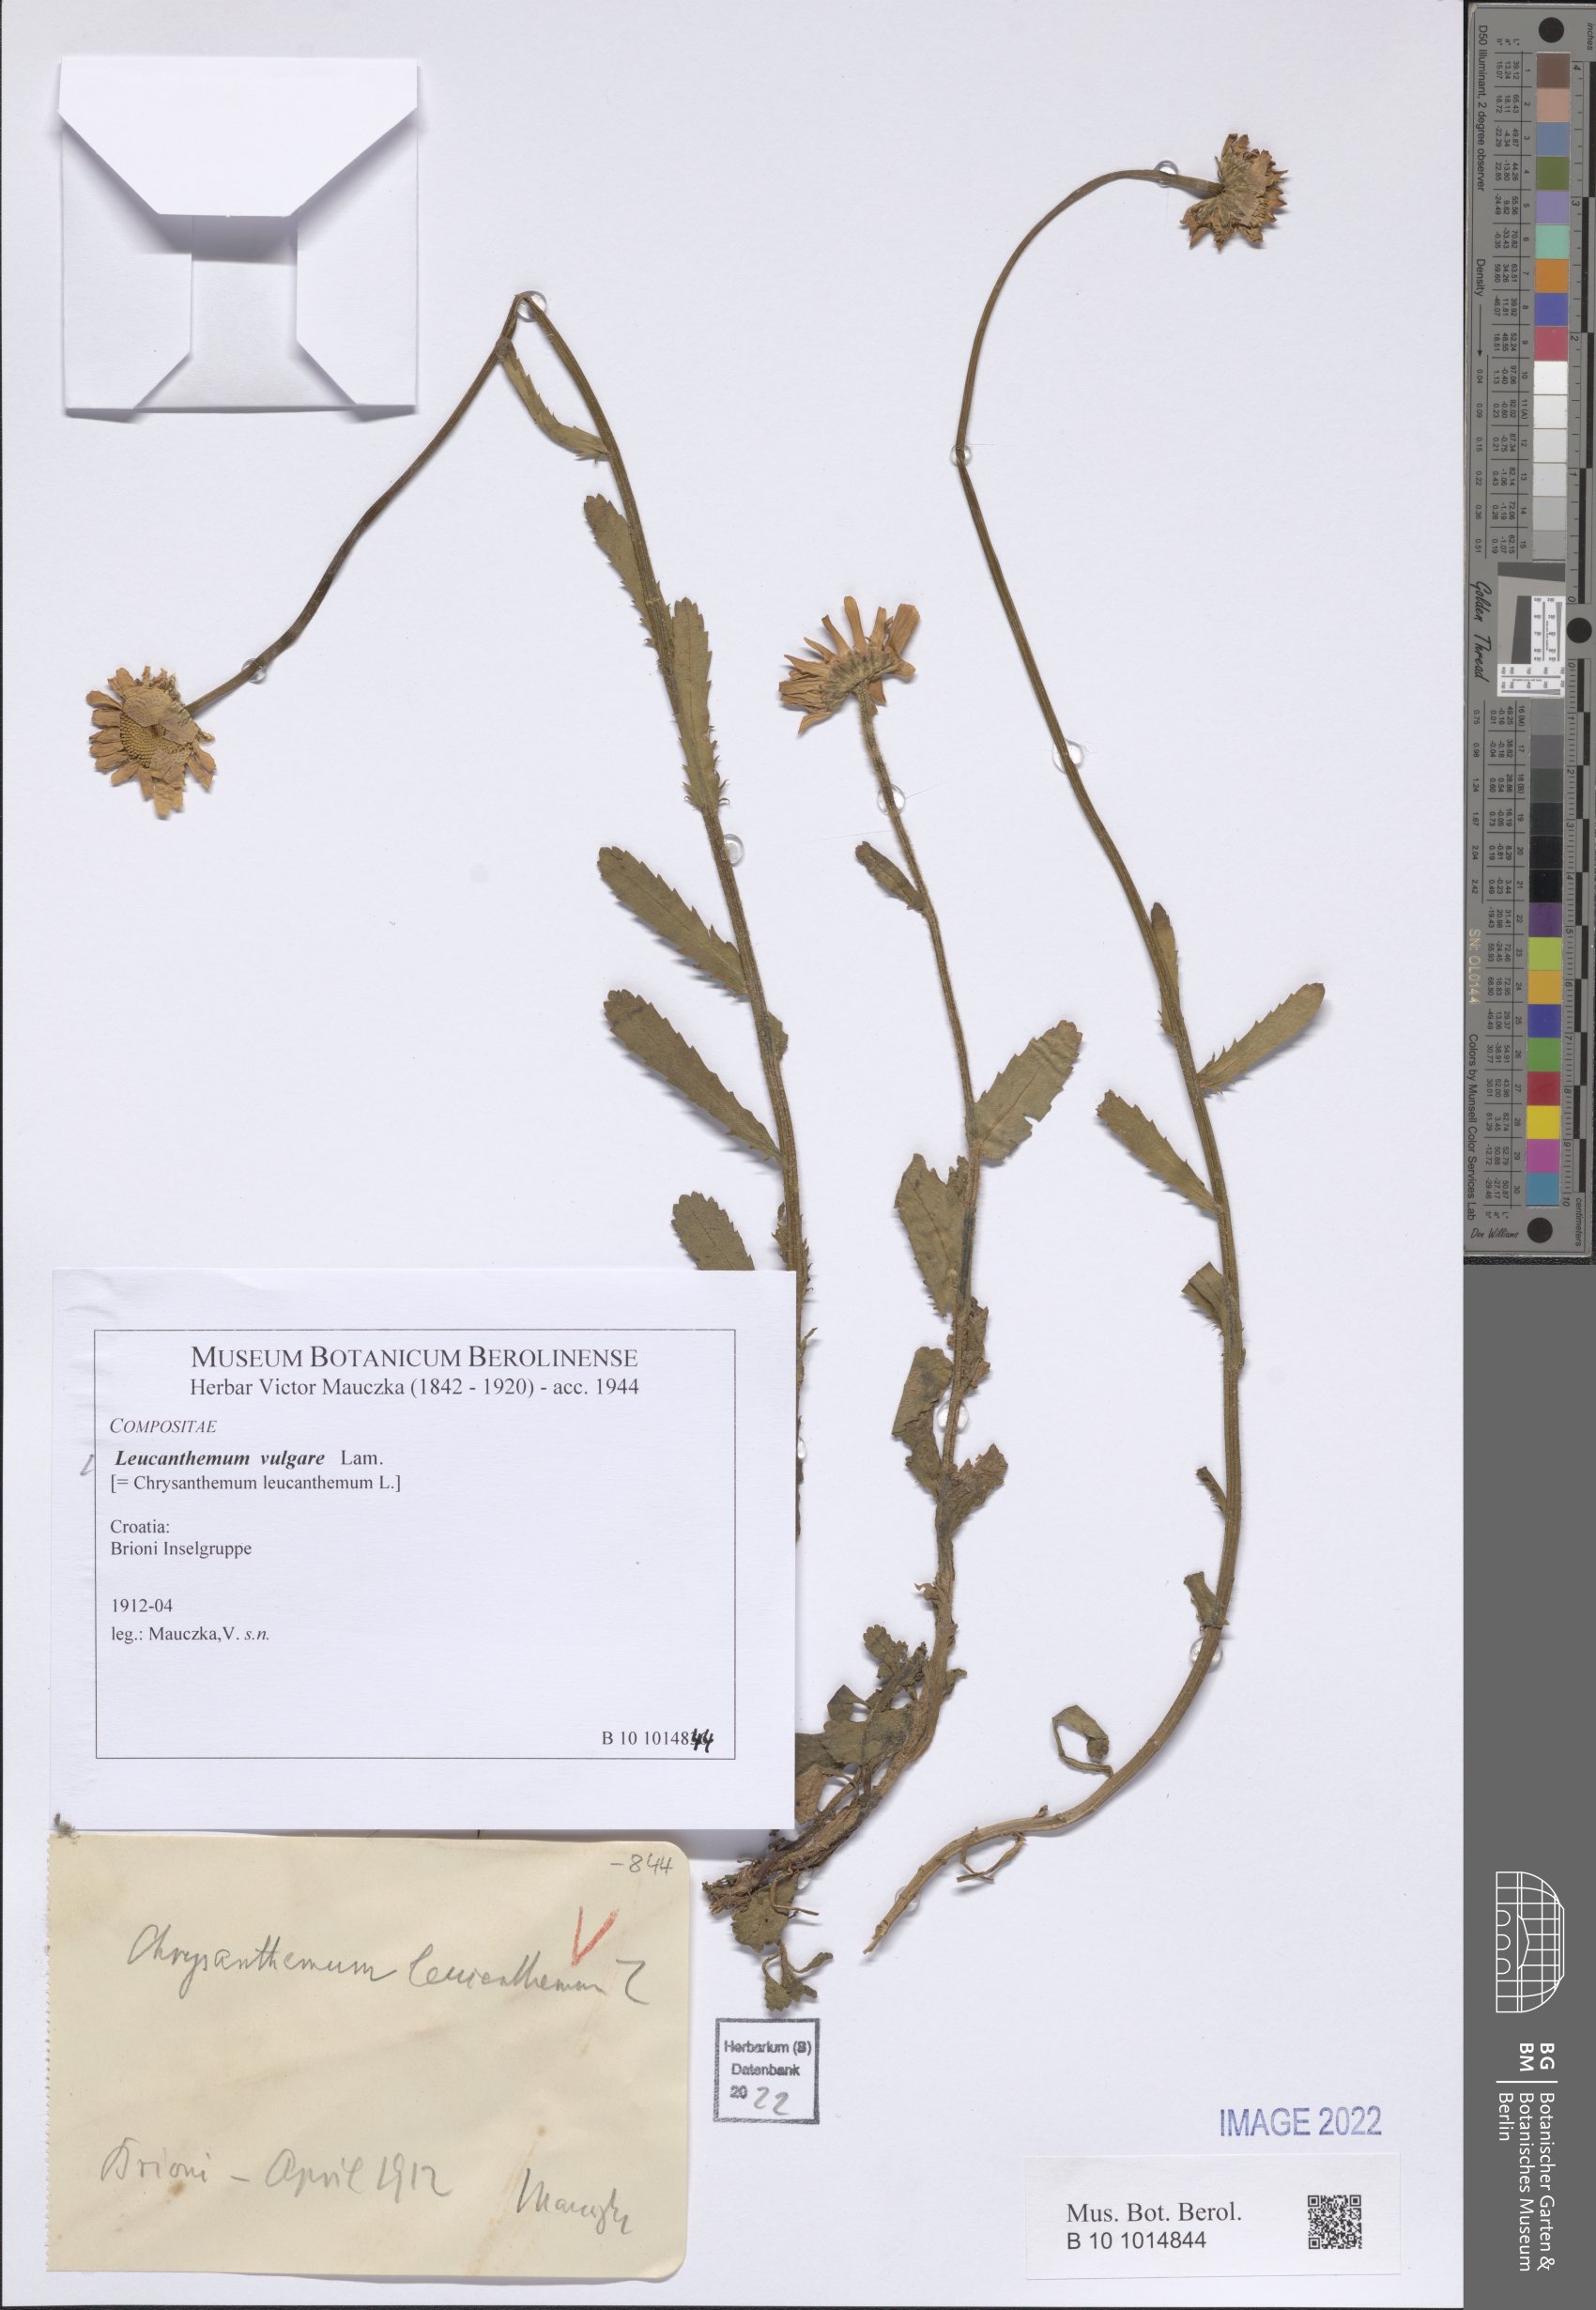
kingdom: Plantae
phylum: Tracheophyta
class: Magnoliopsida
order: Asterales
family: Asteraceae
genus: Leucanthemum
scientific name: Leucanthemum ircutianum
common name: Daisy
